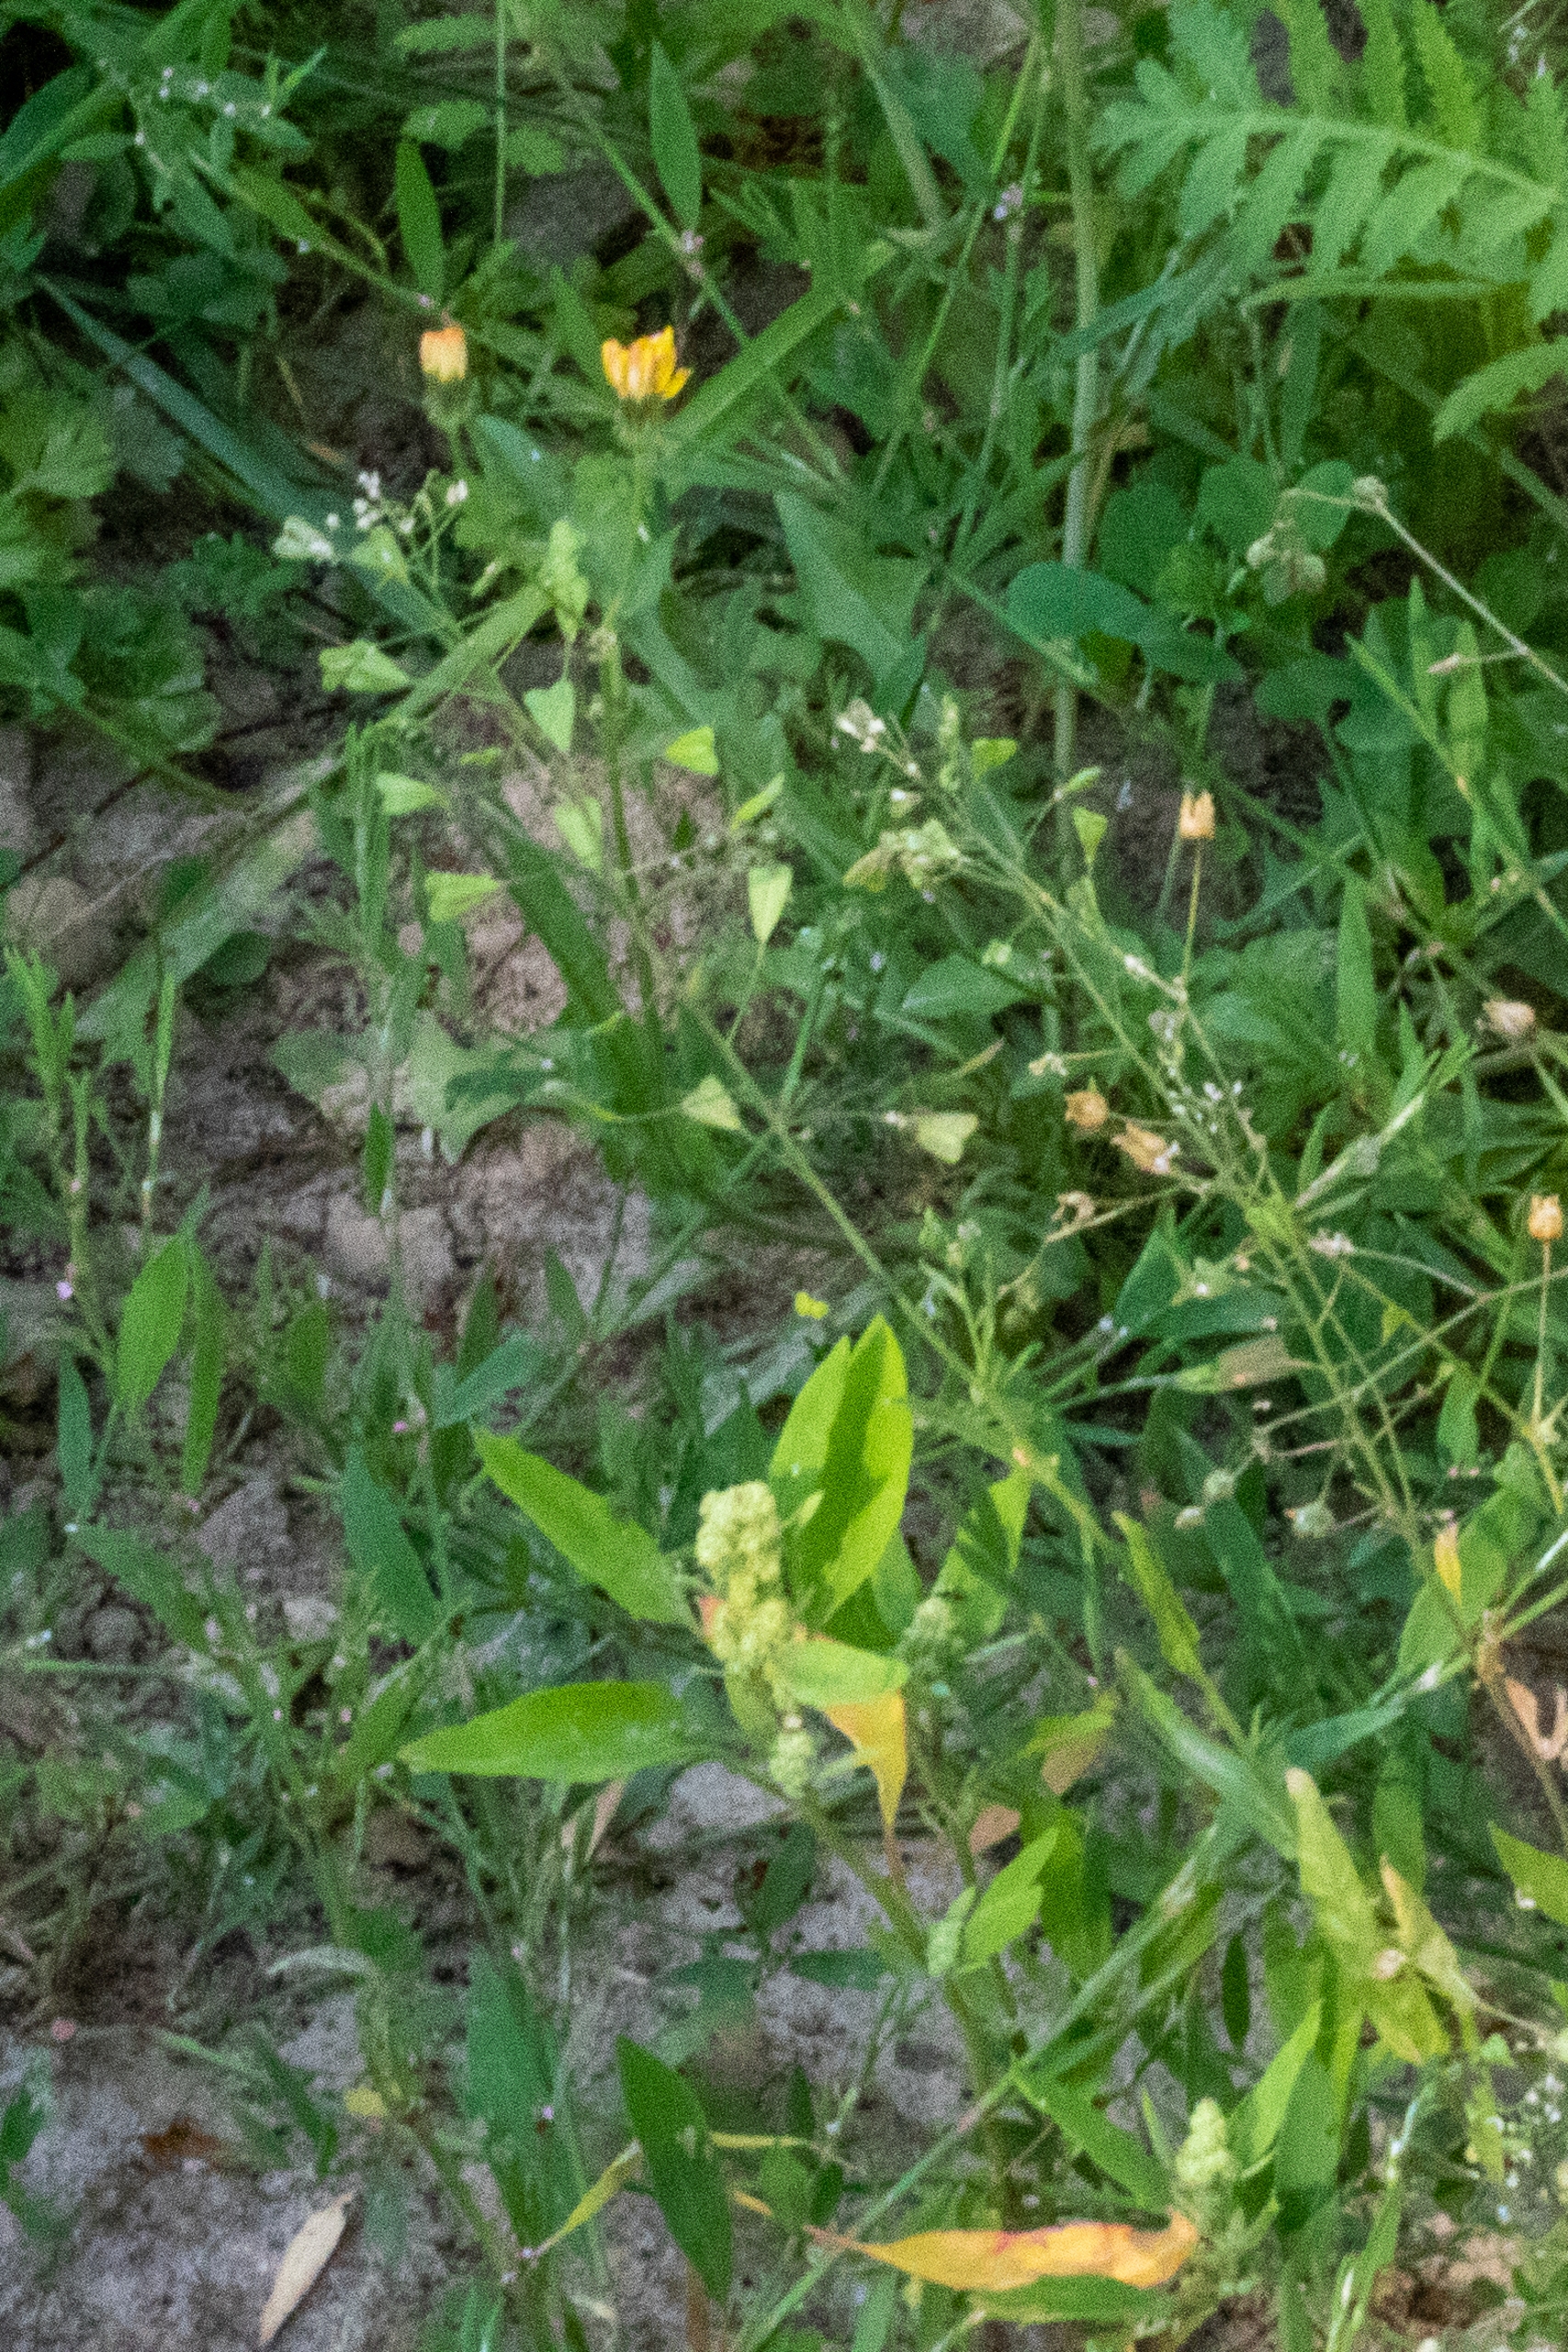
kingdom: Plantae
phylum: Tracheophyta
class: Magnoliopsida
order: Brassicales
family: Brassicaceae
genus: Capsella
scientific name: Capsella bursa-pastoris
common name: Hyrdetaske
